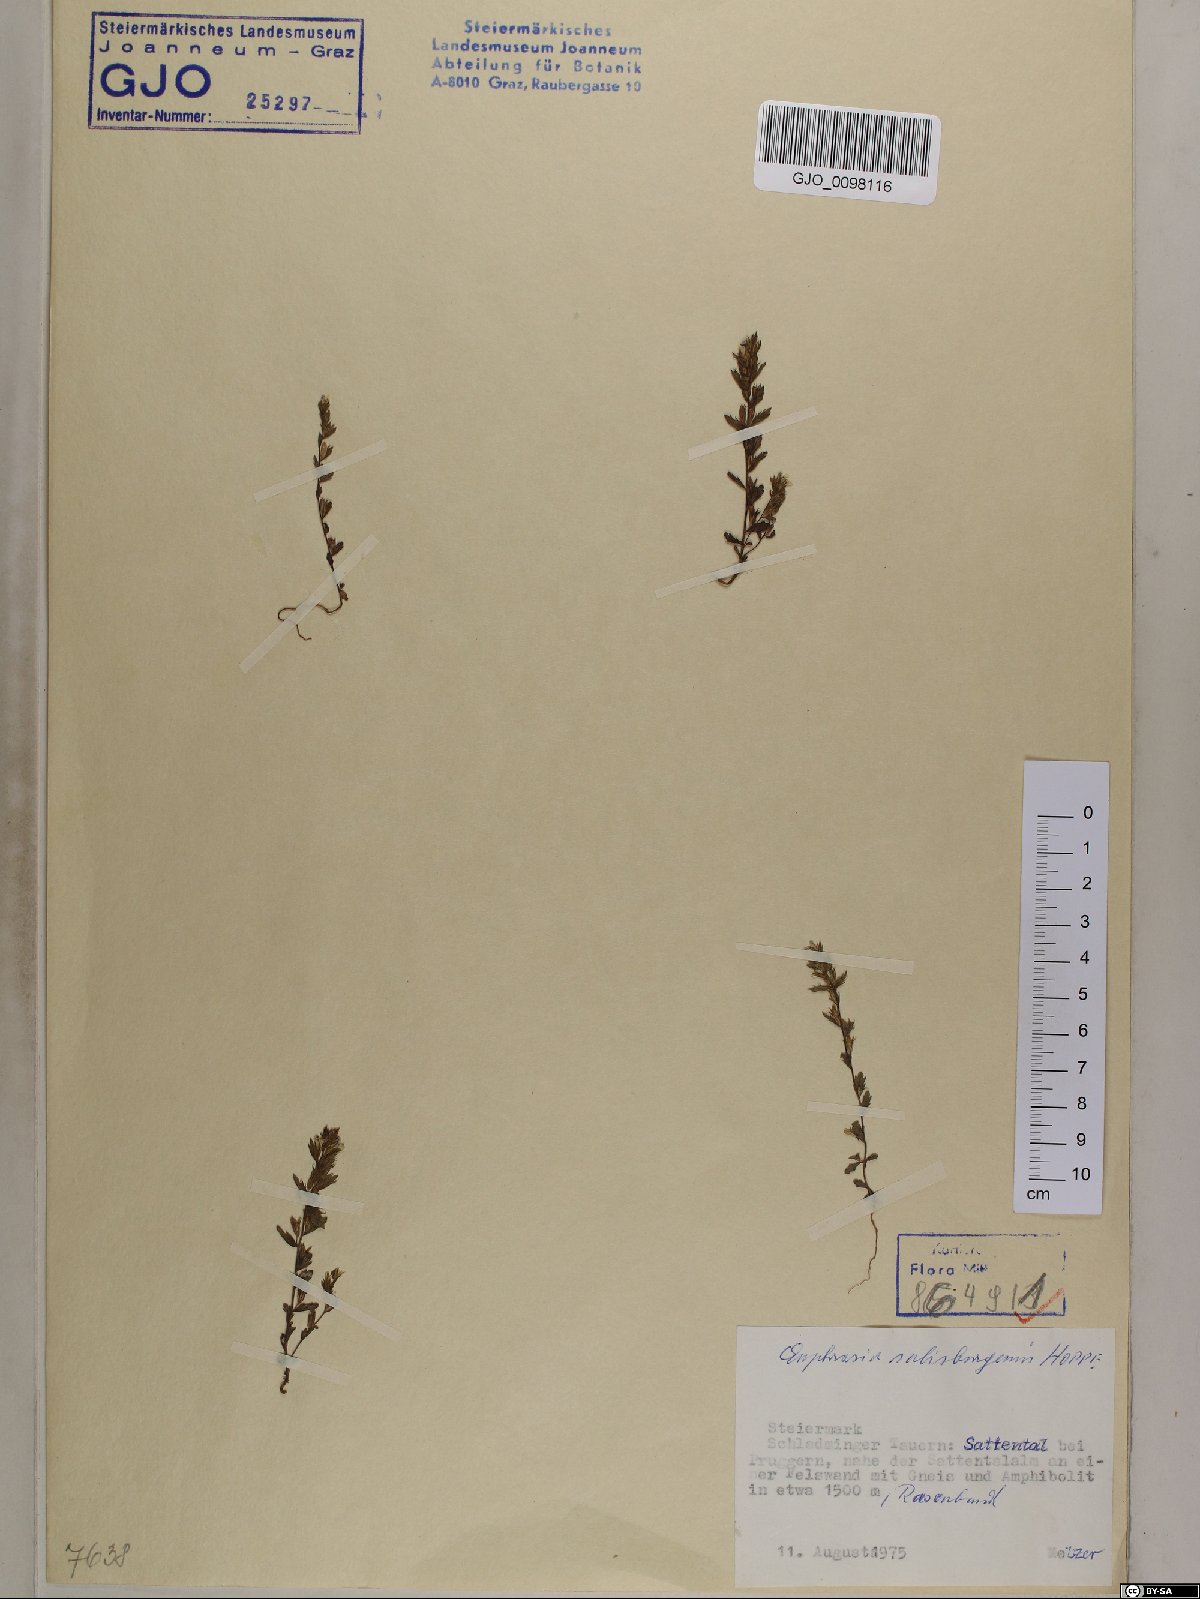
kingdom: Plantae
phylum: Tracheophyta
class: Magnoliopsida
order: Lamiales
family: Orobanchaceae
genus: Euphrasia
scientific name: Euphrasia salisburgensis
